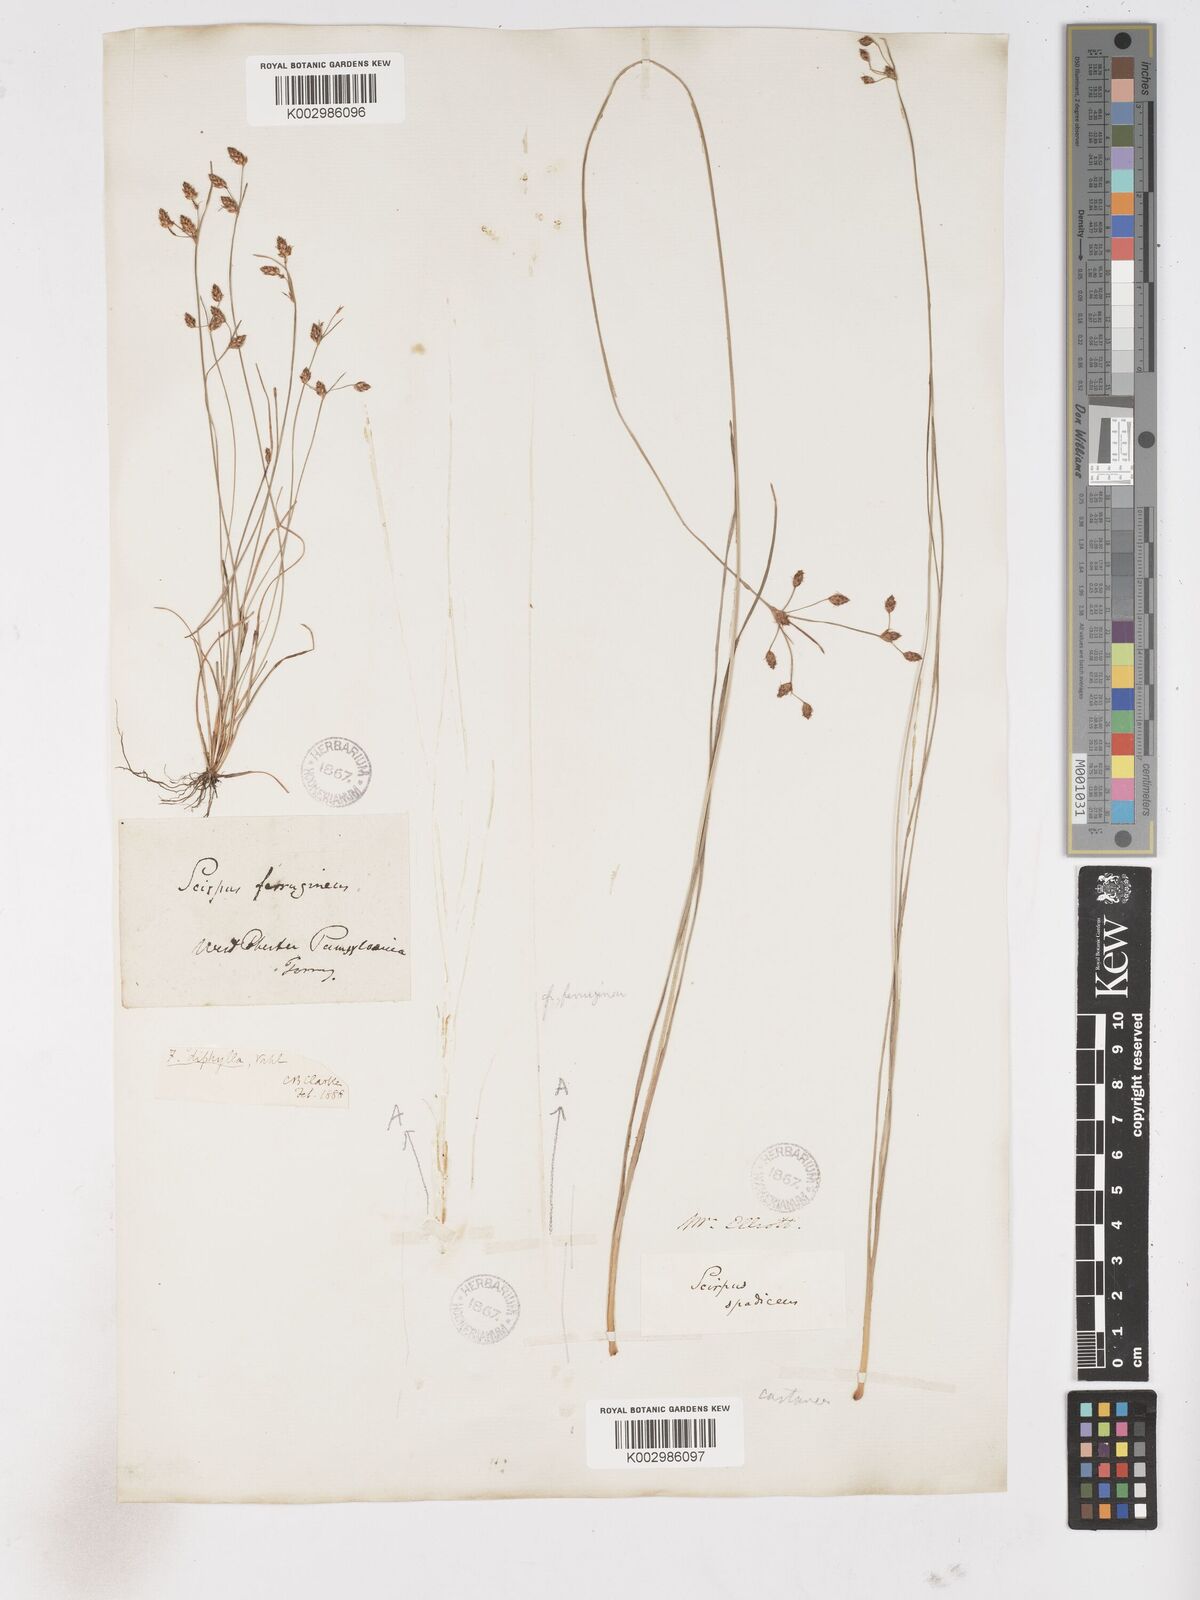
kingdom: Plantae
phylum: Tracheophyta
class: Liliopsida
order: Poales
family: Cyperaceae
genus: Fimbristylis
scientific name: Fimbristylis dichotoma
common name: Forked fimbry
